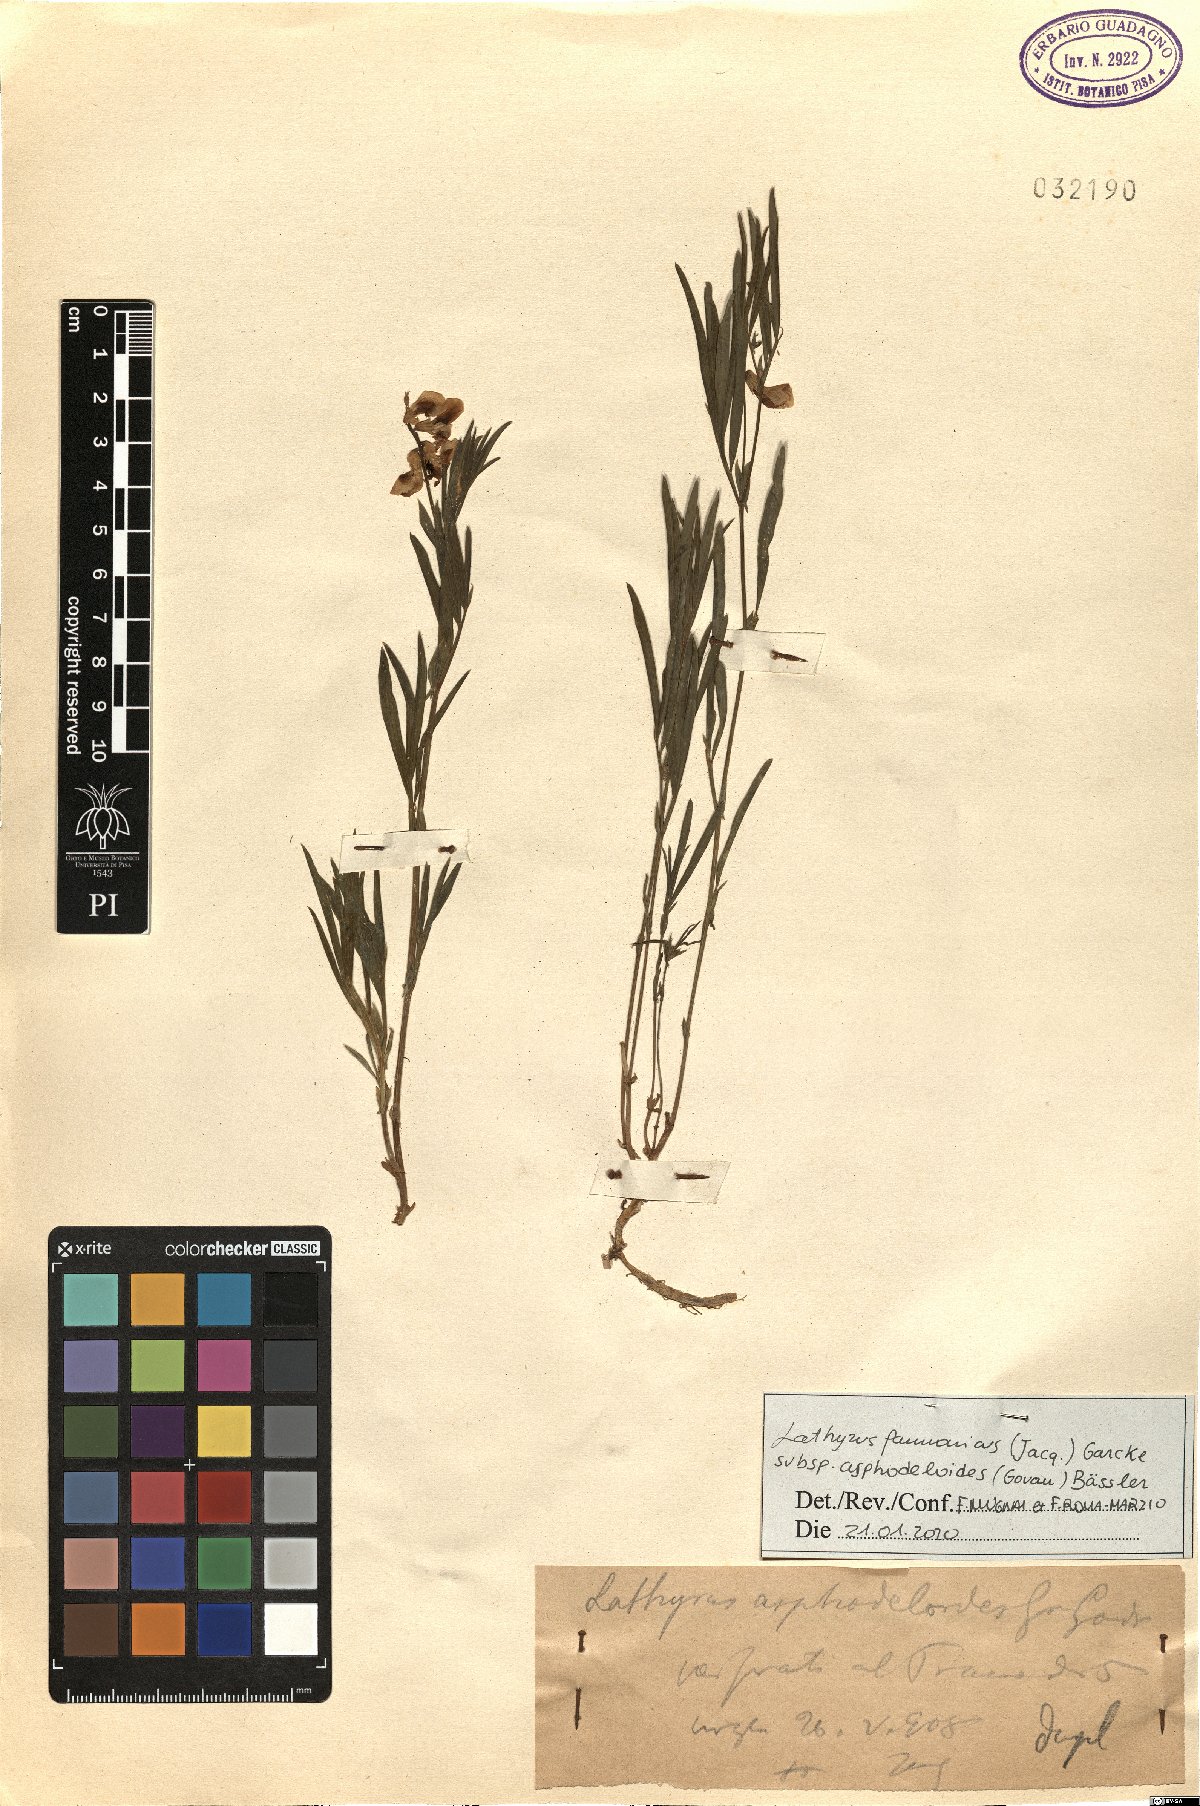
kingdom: Plantae
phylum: Tracheophyta
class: Magnoliopsida
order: Fabales
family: Fabaceae
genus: Lathyrus
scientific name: Lathyrus pannonicus
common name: Pea
